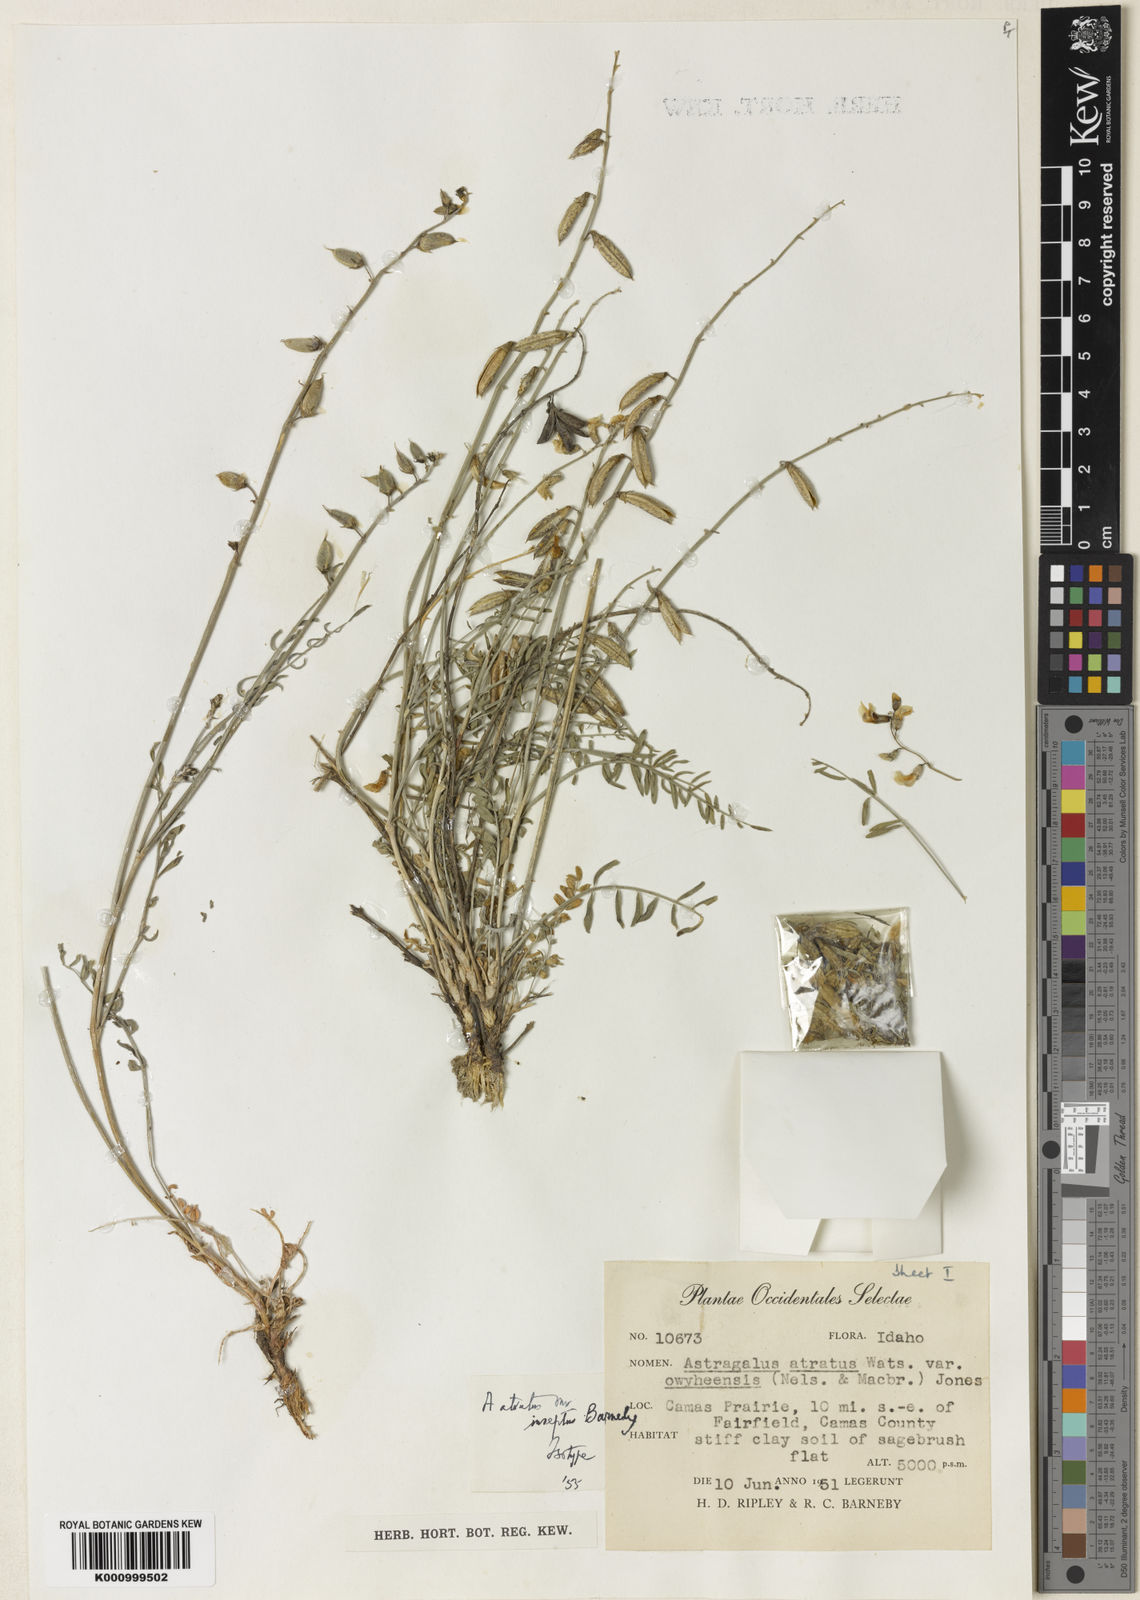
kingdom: Plantae
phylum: Tracheophyta
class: Magnoliopsida
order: Fabales
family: Fabaceae
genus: Astragalus
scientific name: Astragalus atratus
